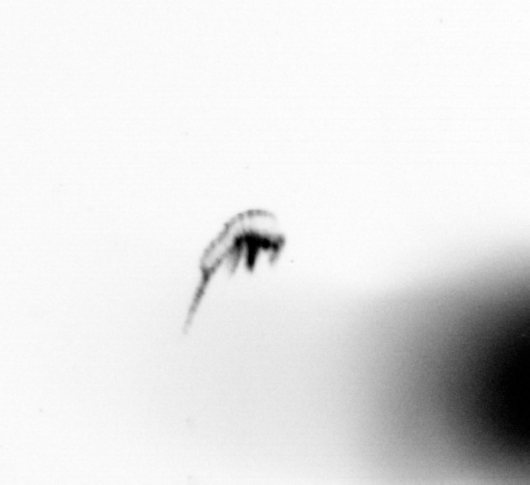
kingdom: Animalia
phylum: Arthropoda
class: Copepoda
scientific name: Copepoda
